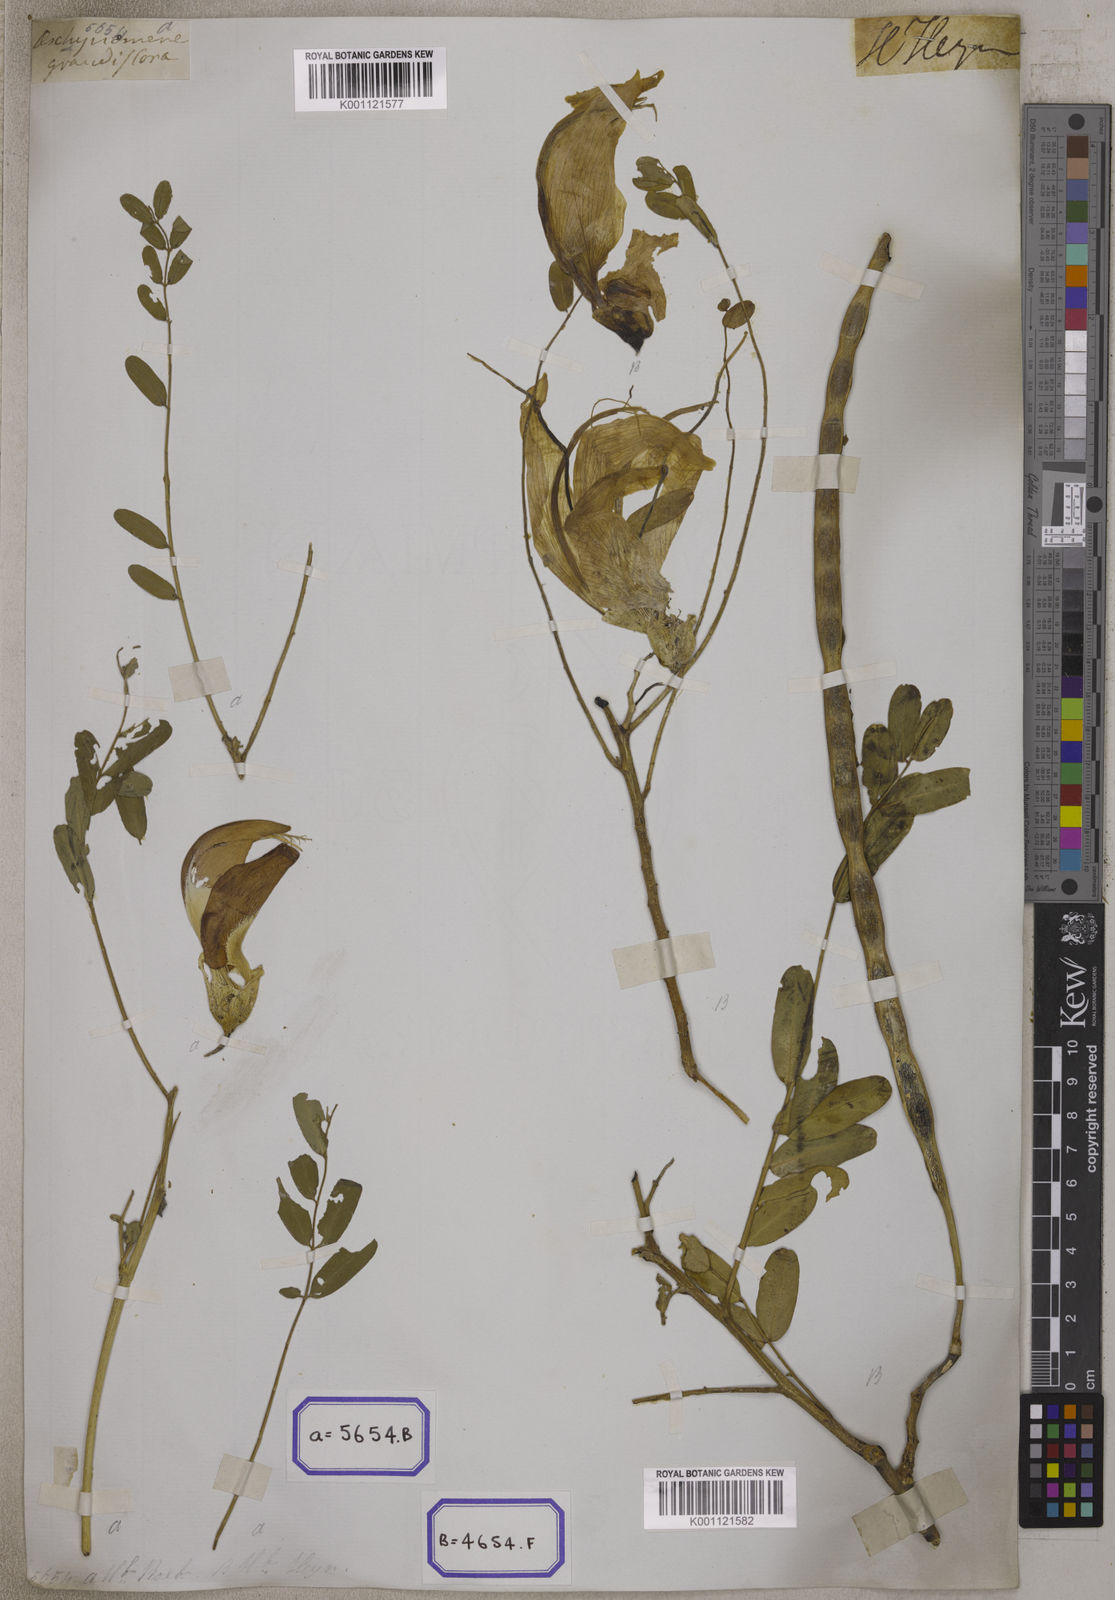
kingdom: Plantae
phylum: Tracheophyta
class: Magnoliopsida
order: Fabales
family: Fabaceae
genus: Sesbania
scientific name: Sesbania grandiflora
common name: Vegetable-hummingbird
